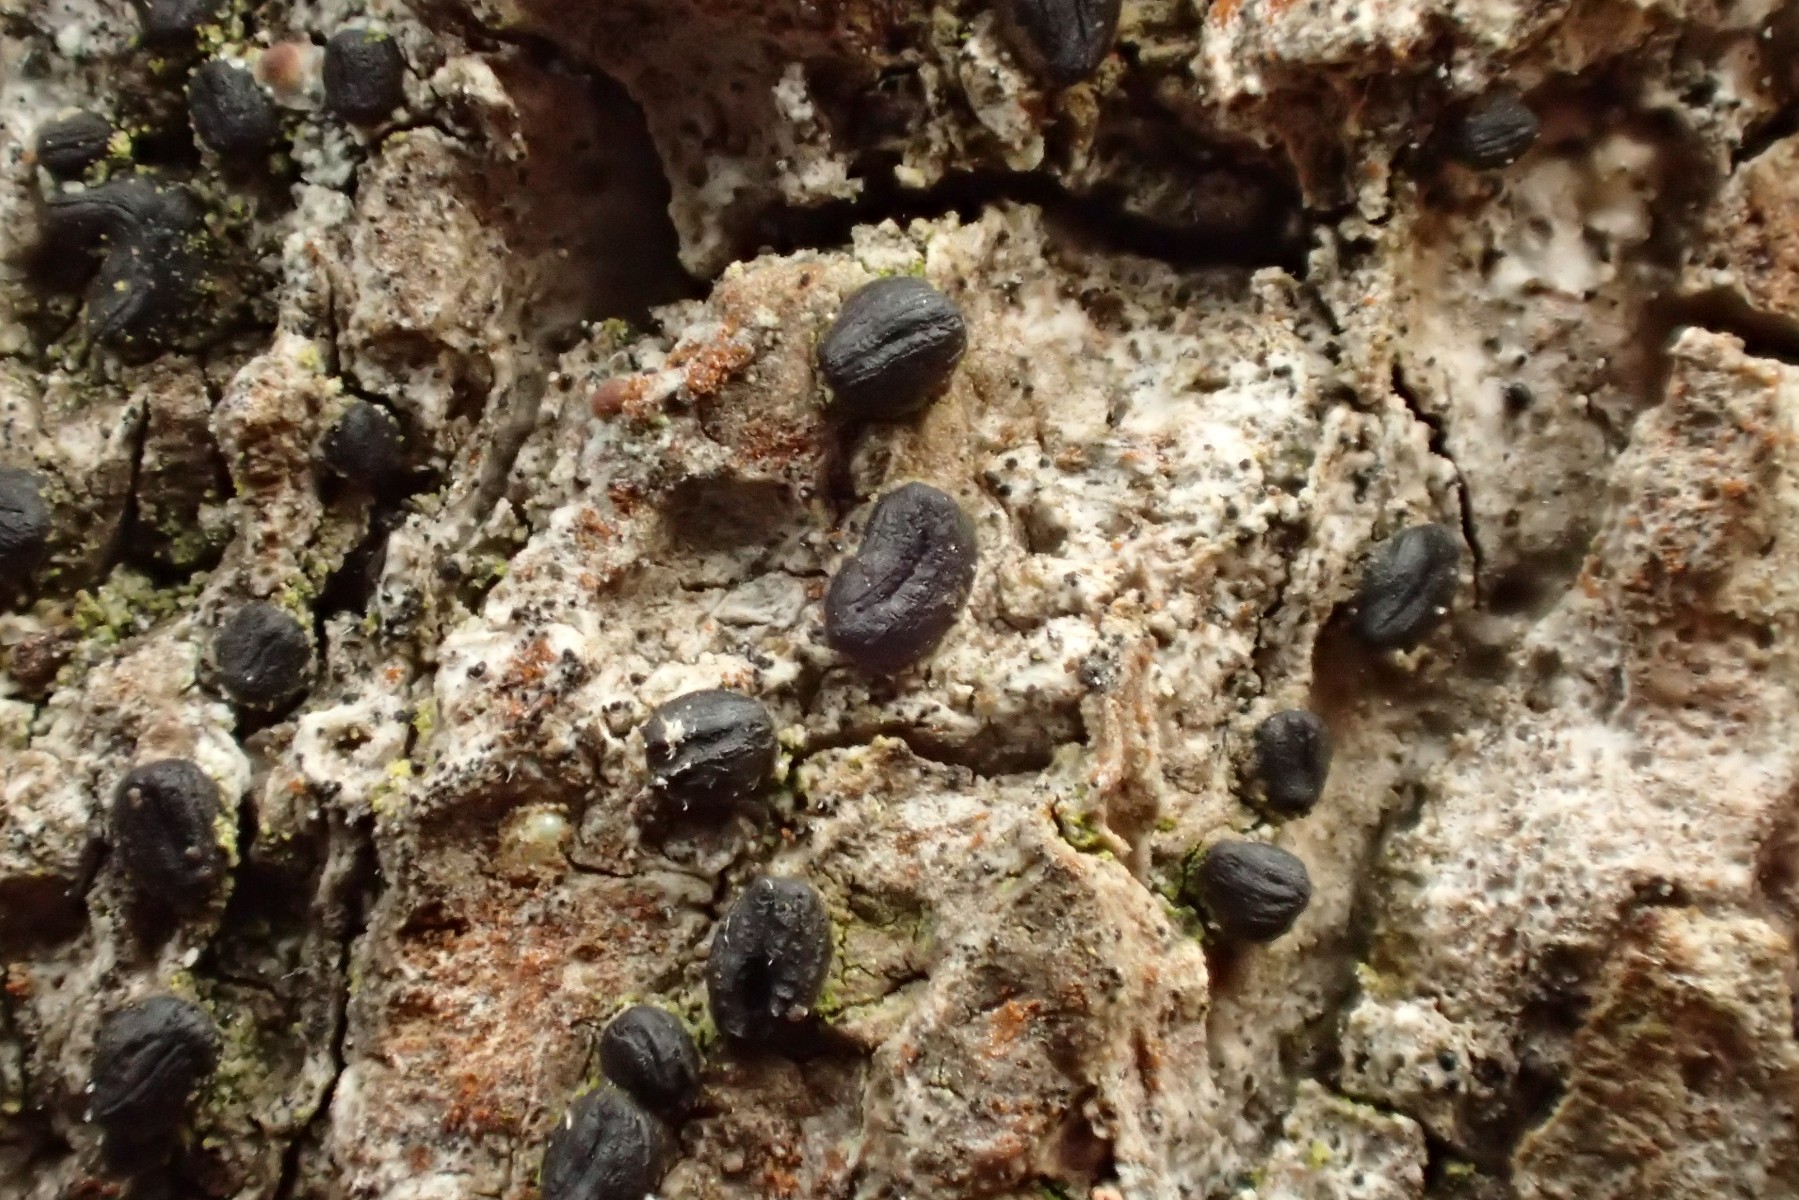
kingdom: Fungi
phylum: Ascomycota
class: Dothideomycetes
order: Hysteriales
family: Hysteriaceae
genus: Hysterium
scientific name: Hysterium pulicare
